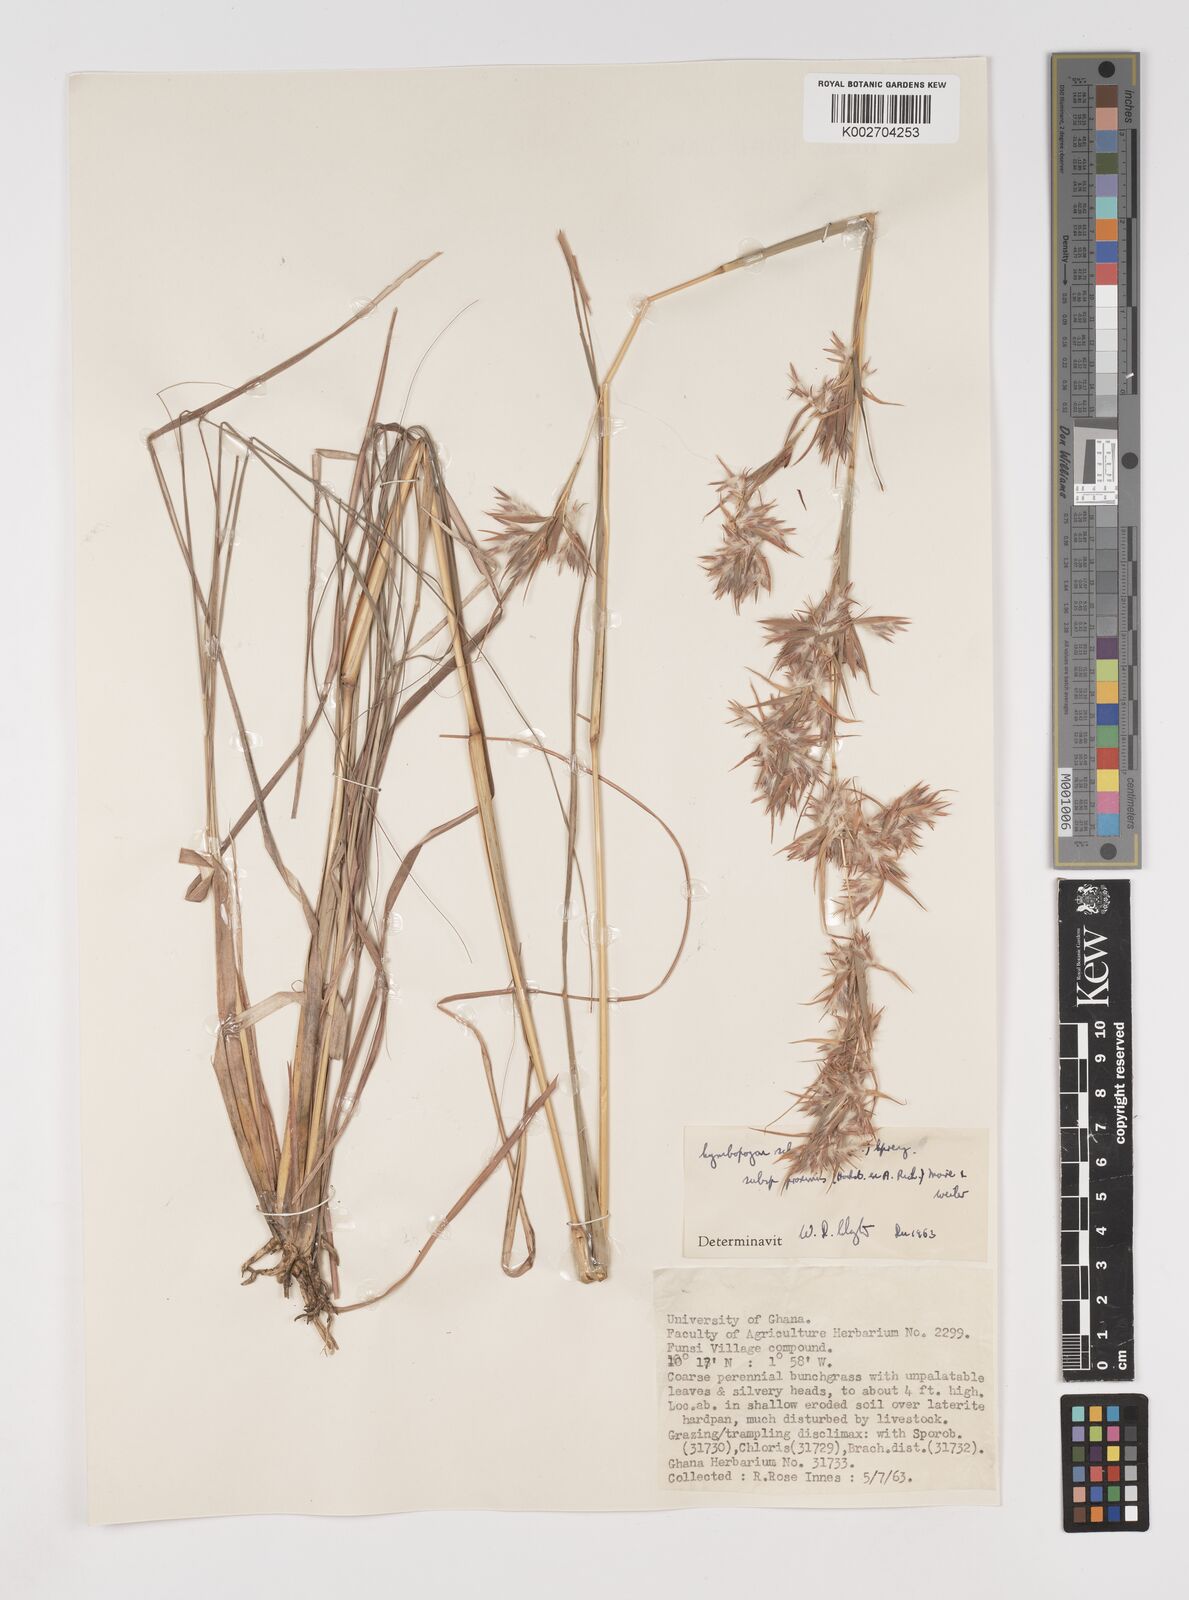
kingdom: Plantae
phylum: Tracheophyta
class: Liliopsida
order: Poales
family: Poaceae
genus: Cymbopogon
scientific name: Cymbopogon schoenanthus
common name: Geranium grass
